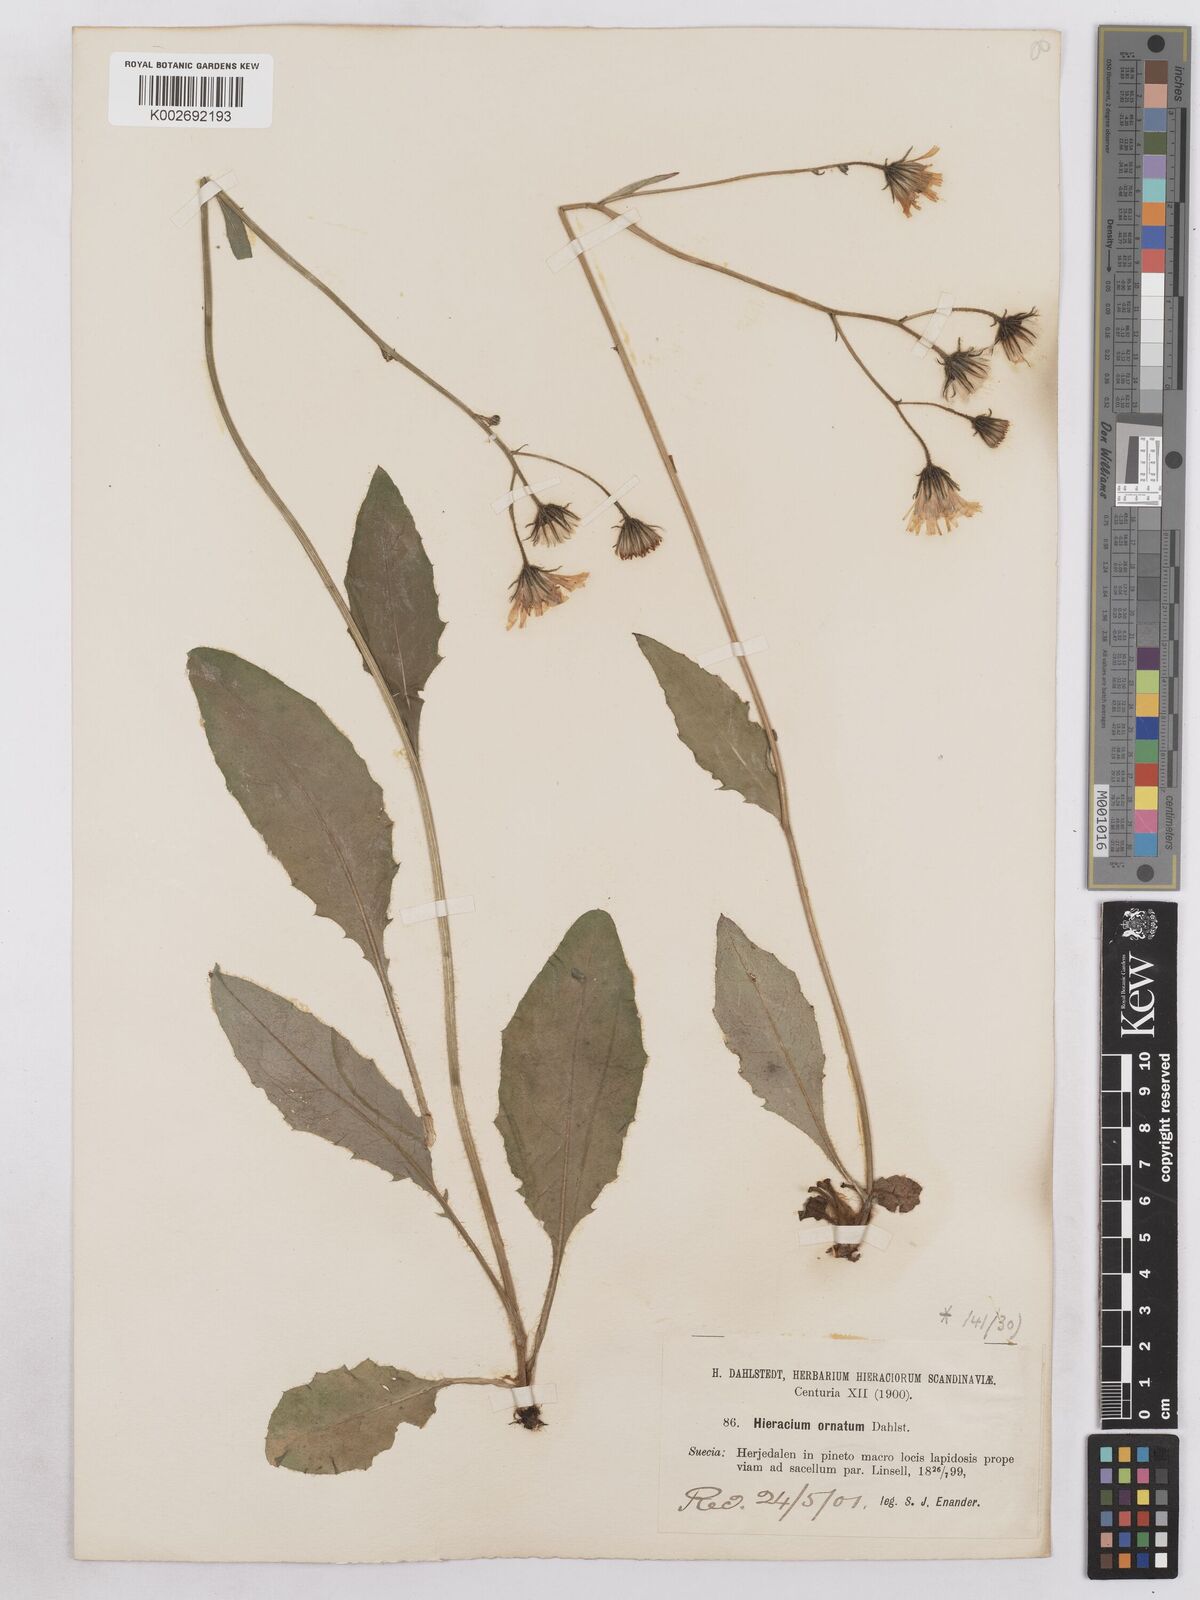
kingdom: Plantae
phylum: Tracheophyta
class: Magnoliopsida
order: Asterales
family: Asteraceae
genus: Hieracium
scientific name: Hieracium diaphanoides
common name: Fine-bracted hawkweed
